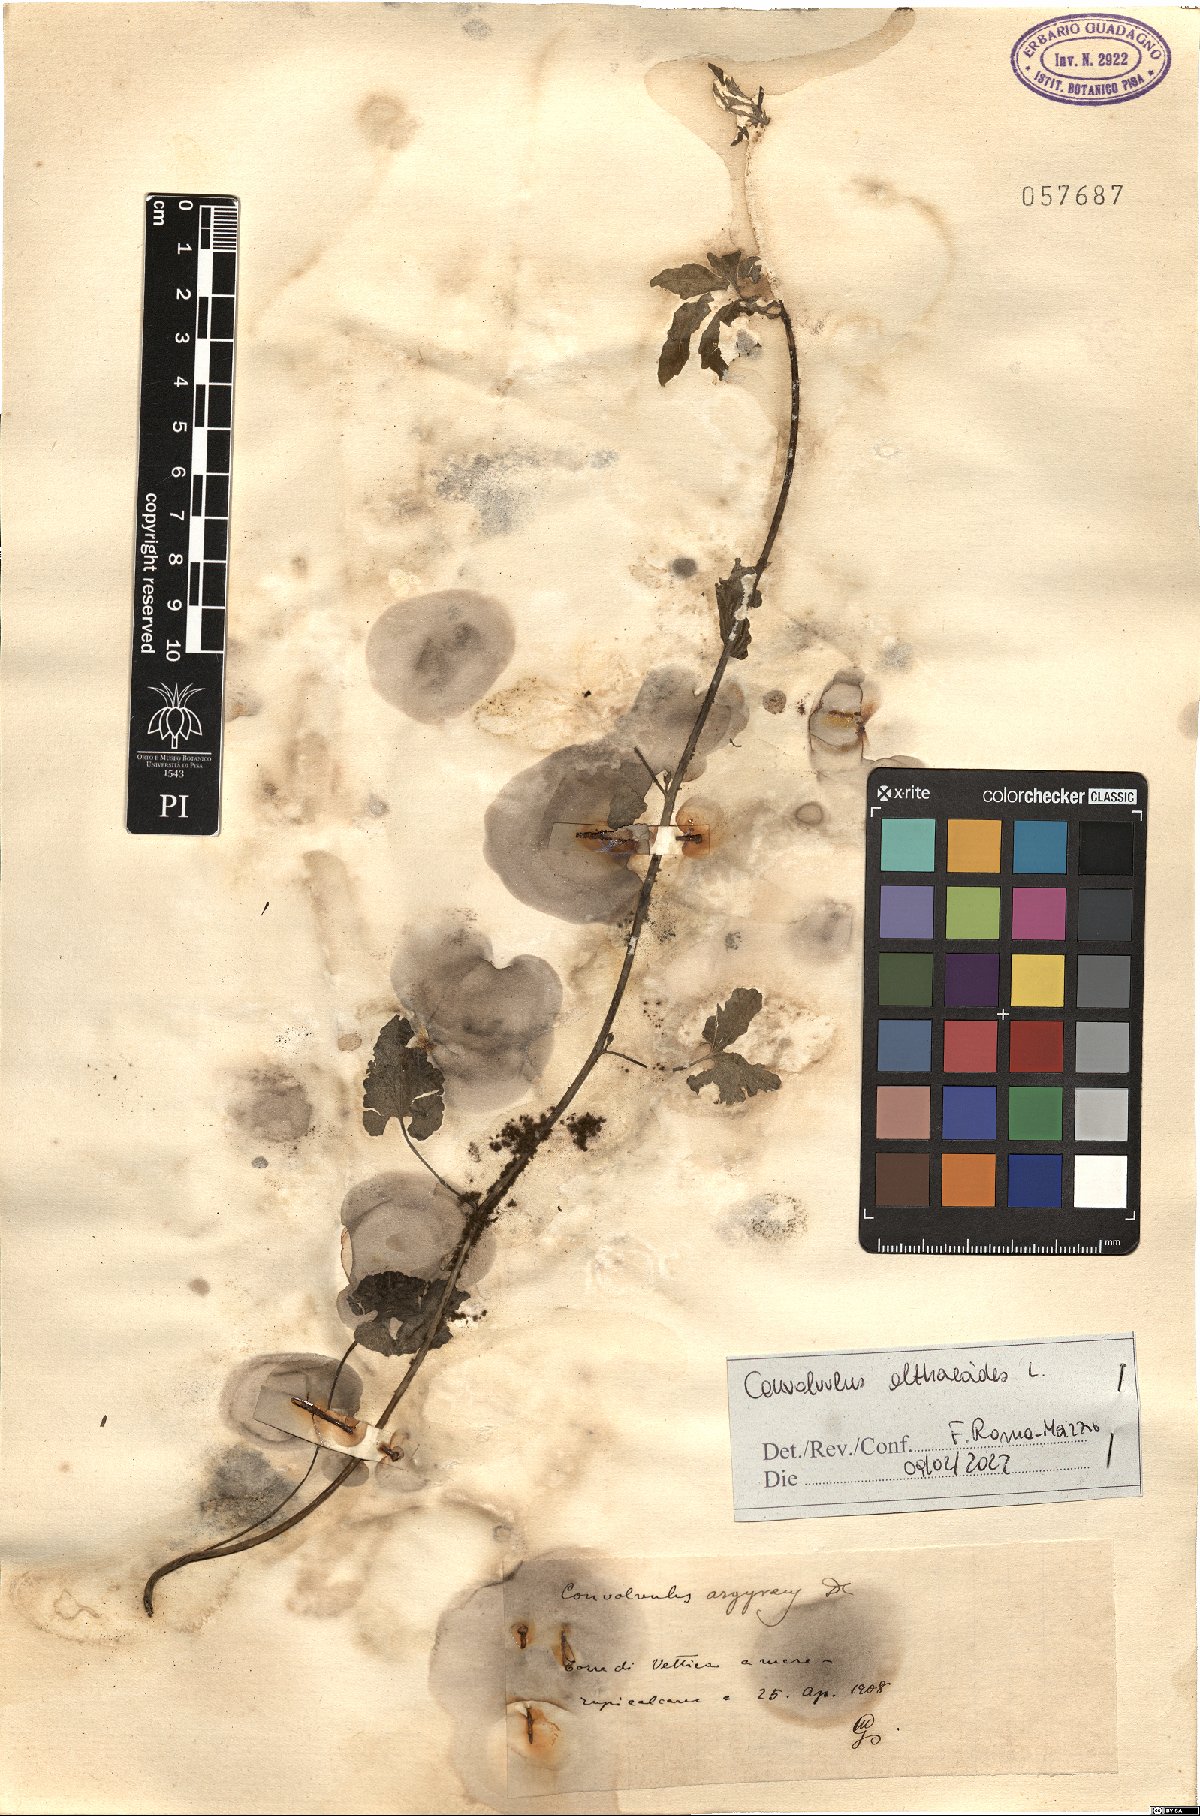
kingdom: Plantae
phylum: Tracheophyta
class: Magnoliopsida
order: Solanales
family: Convolvulaceae
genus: Convolvulus
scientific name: Convolvulus althaeoides
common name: Mallow bindweed
